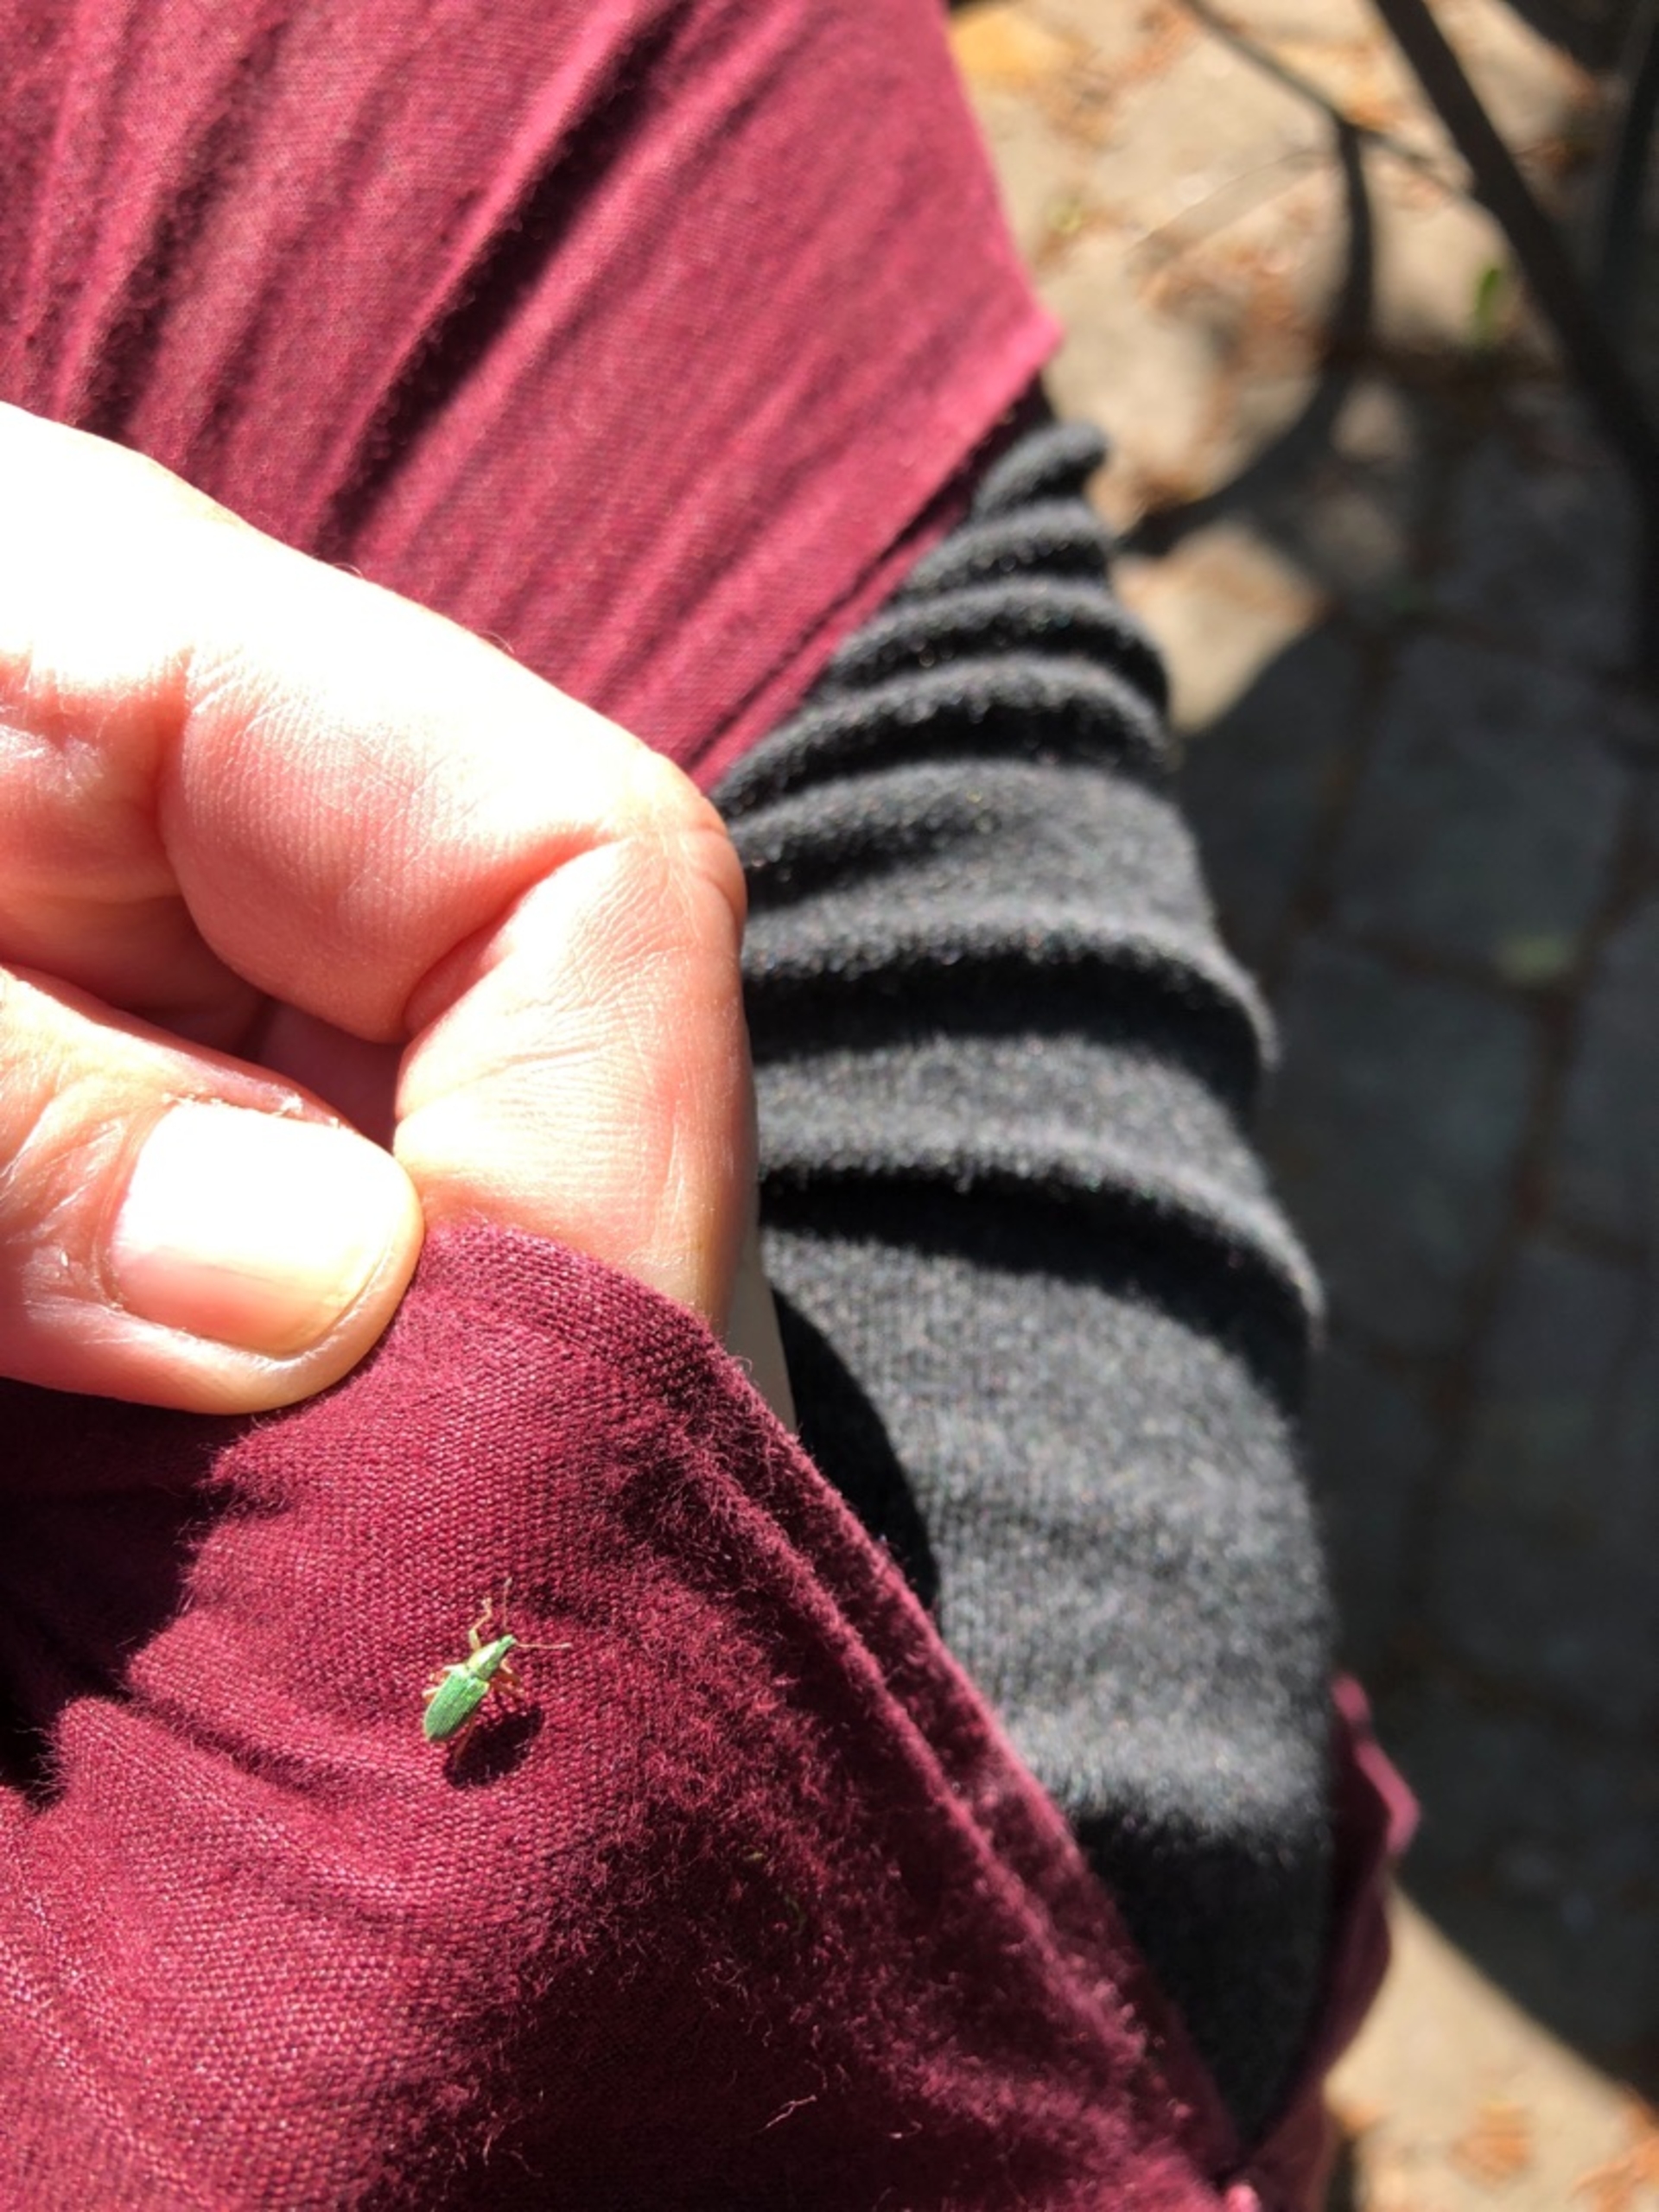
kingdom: Animalia
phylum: Arthropoda
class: Insecta
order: Coleoptera
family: Curculionidae
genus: Polydrusus
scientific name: Polydrusus formosus
